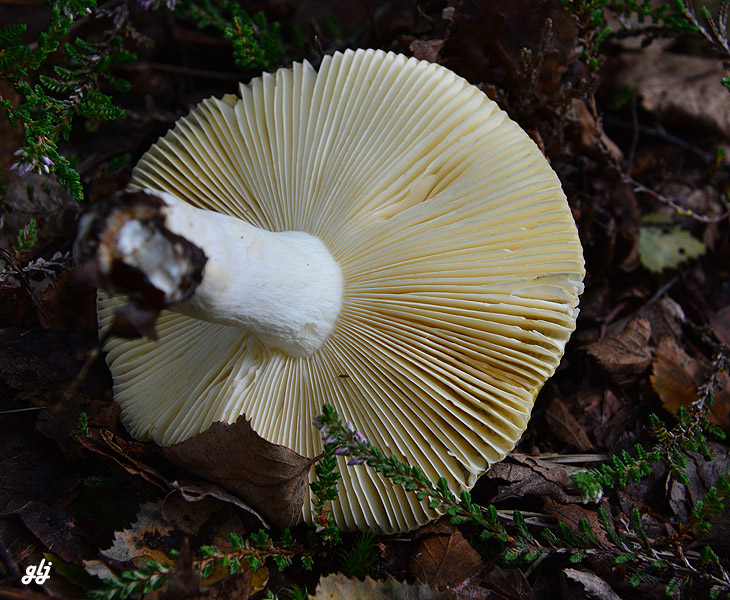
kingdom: Fungi
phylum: Basidiomycota
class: Agaricomycetes
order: Russulales
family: Russulaceae
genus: Russula
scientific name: Russula claroflava
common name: birke-skørhat
